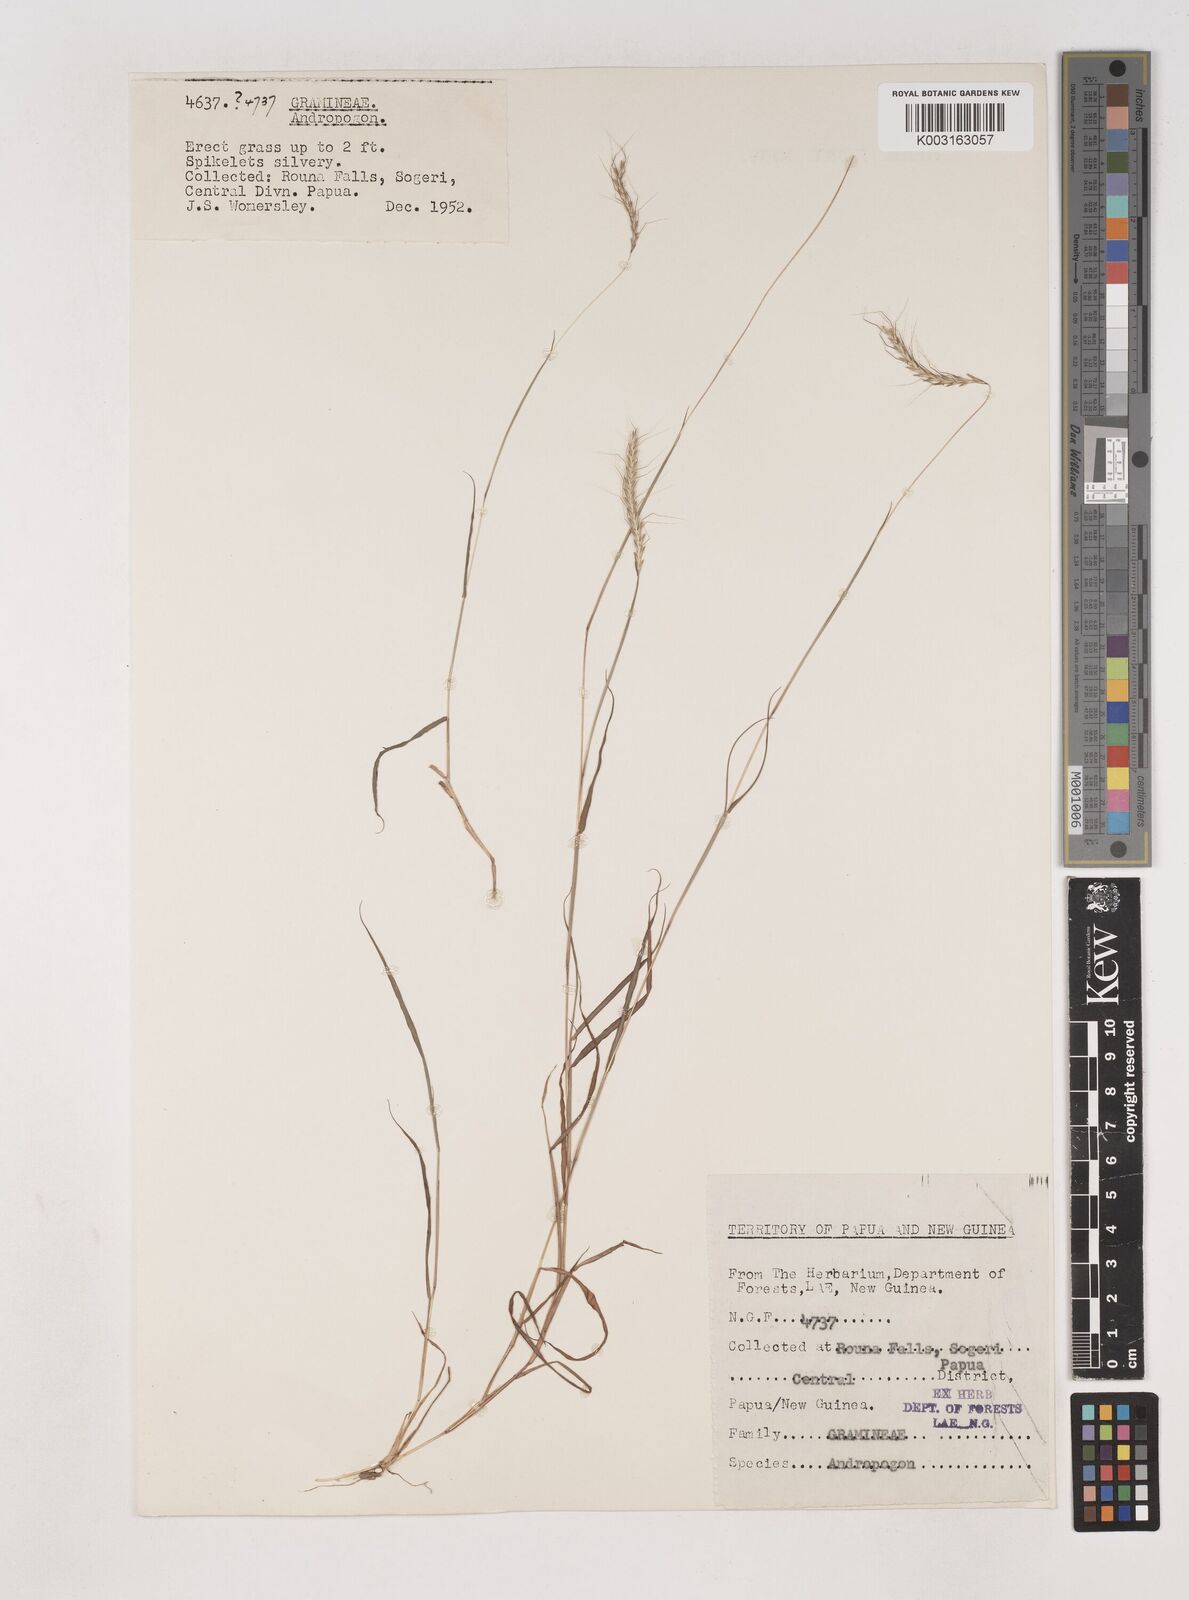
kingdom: Plantae
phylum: Tracheophyta
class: Liliopsida
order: Poales
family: Poaceae
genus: Dichanthium
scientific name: Dichanthium sericeum
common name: Silky bluestem
